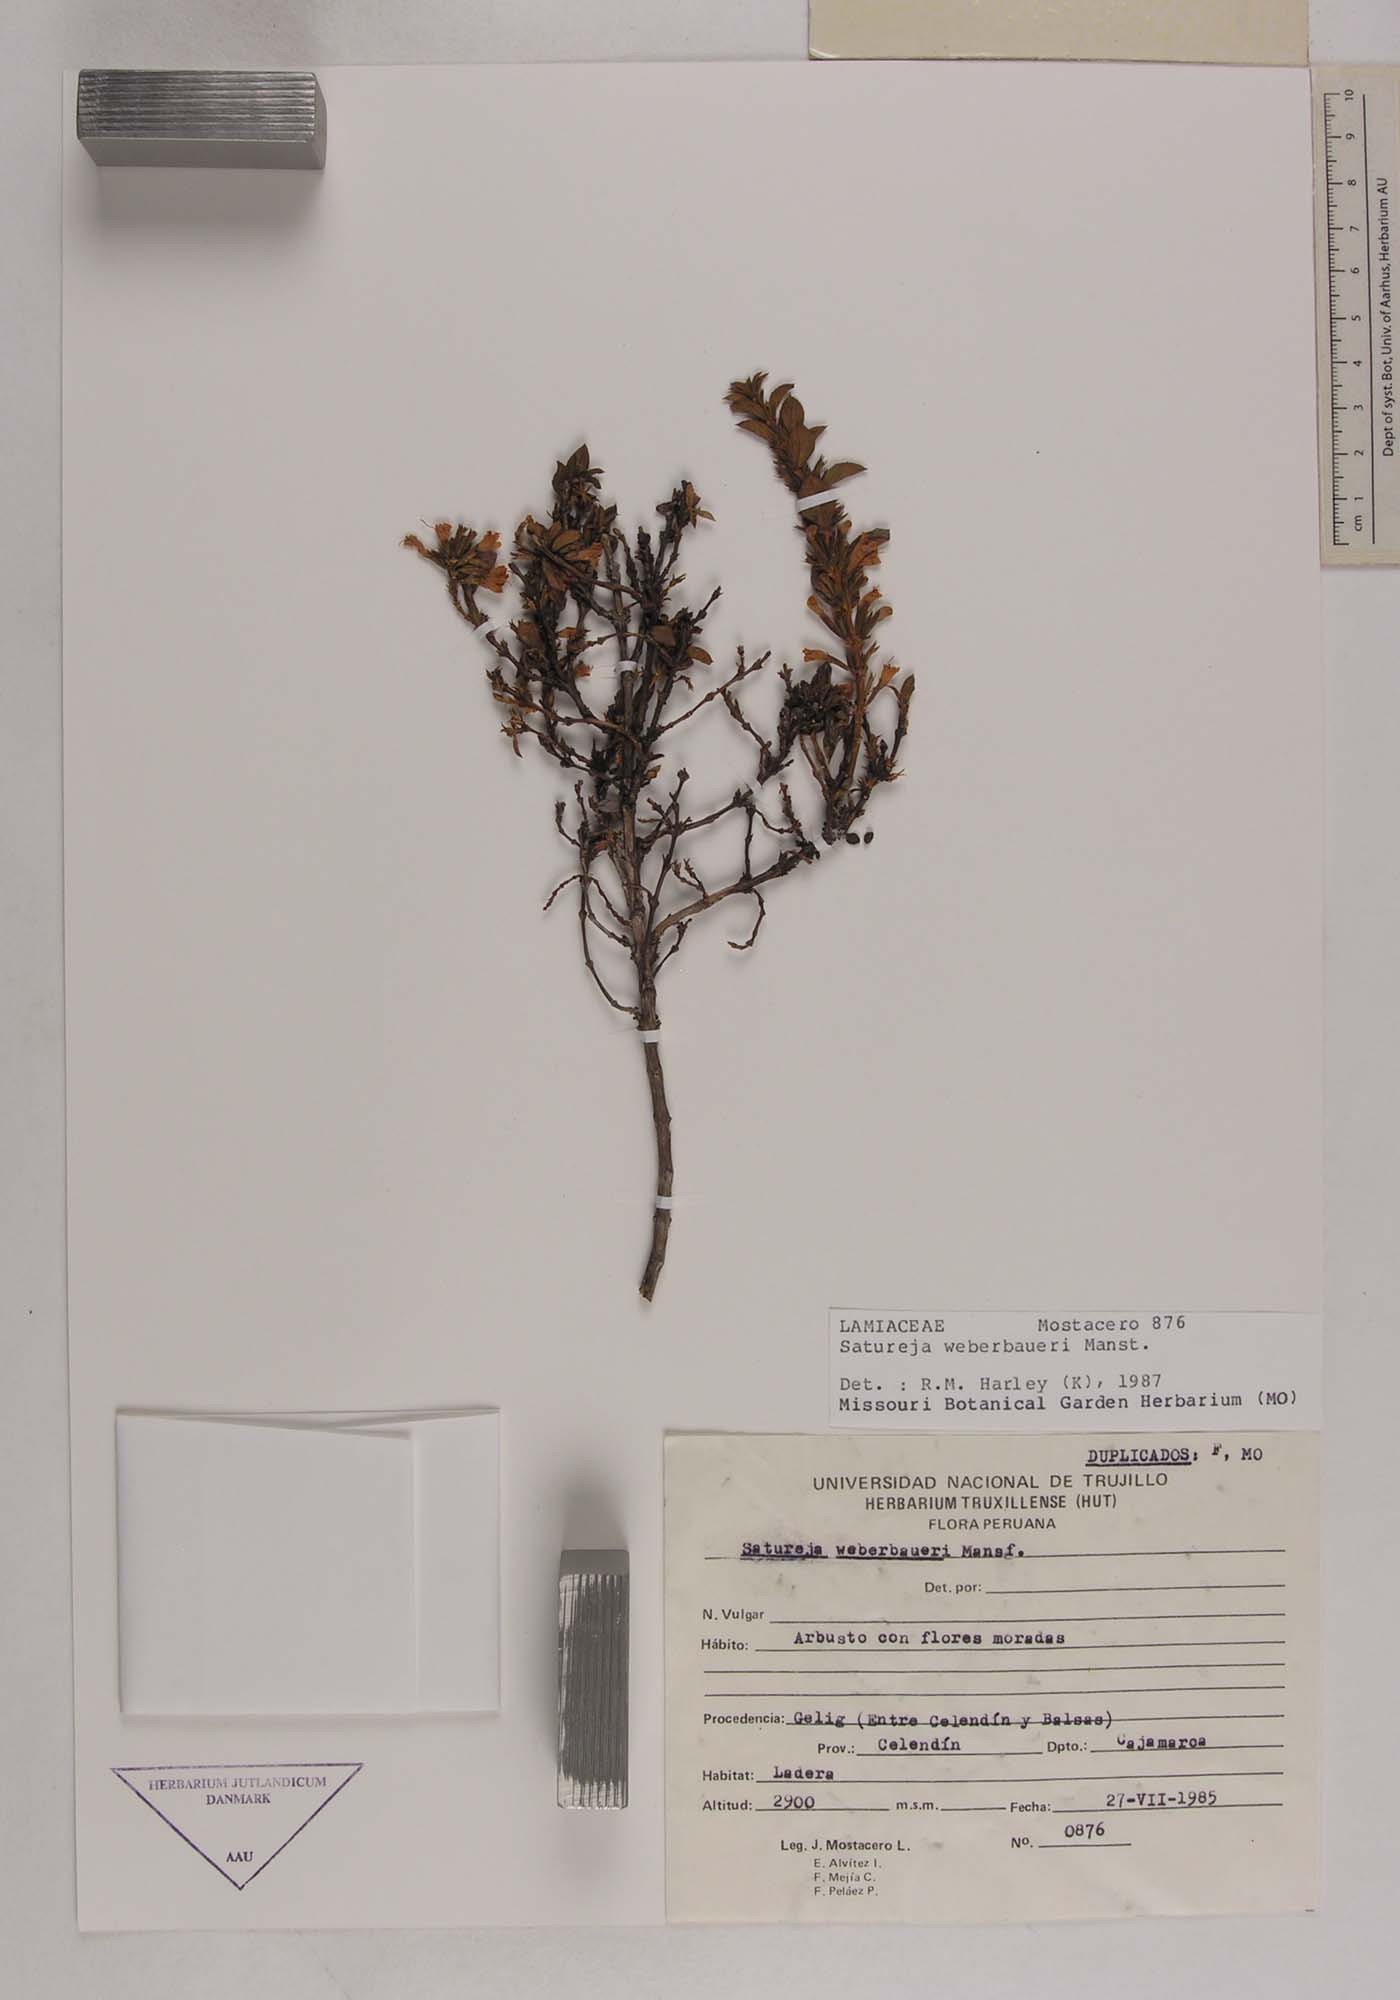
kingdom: Plantae
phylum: Tracheophyta
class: Magnoliopsida
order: Lamiales
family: Lamiaceae
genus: Clinopodium
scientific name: Clinopodium weberbaueri
